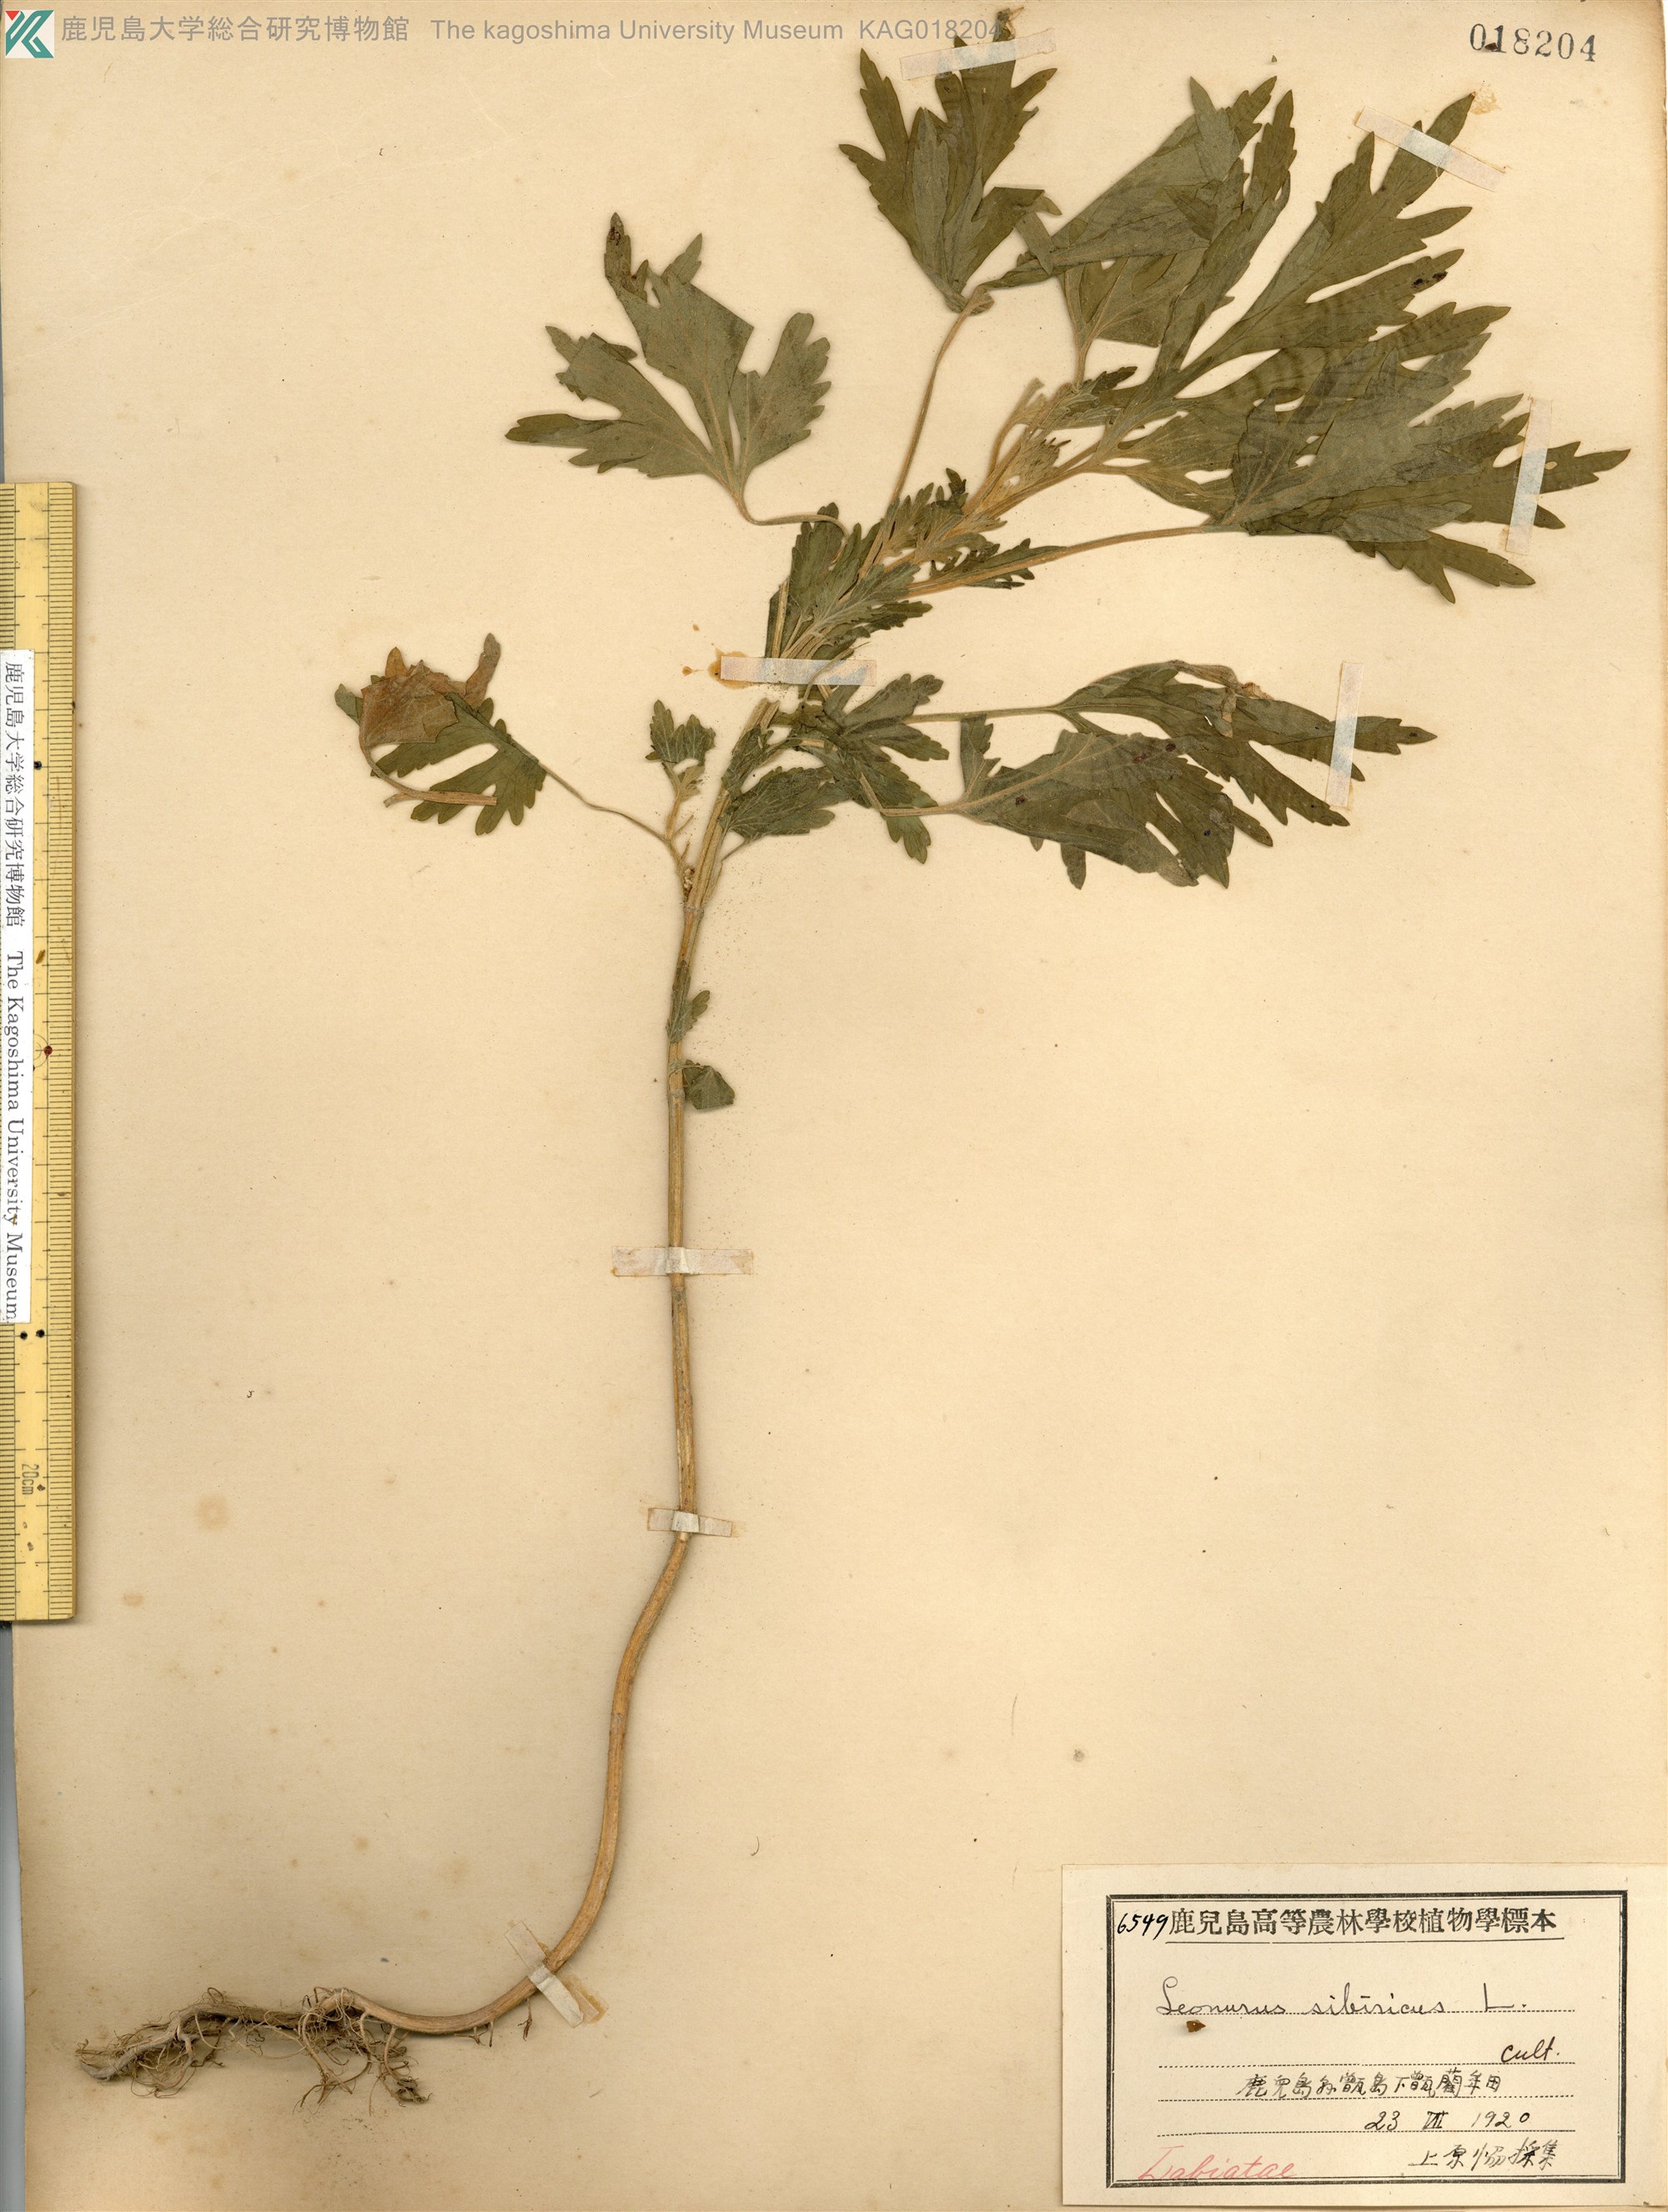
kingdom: Plantae
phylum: Tracheophyta
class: Magnoliopsida
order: Lamiales
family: Lamiaceae
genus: Leonurus
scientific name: Leonurus japonicus
